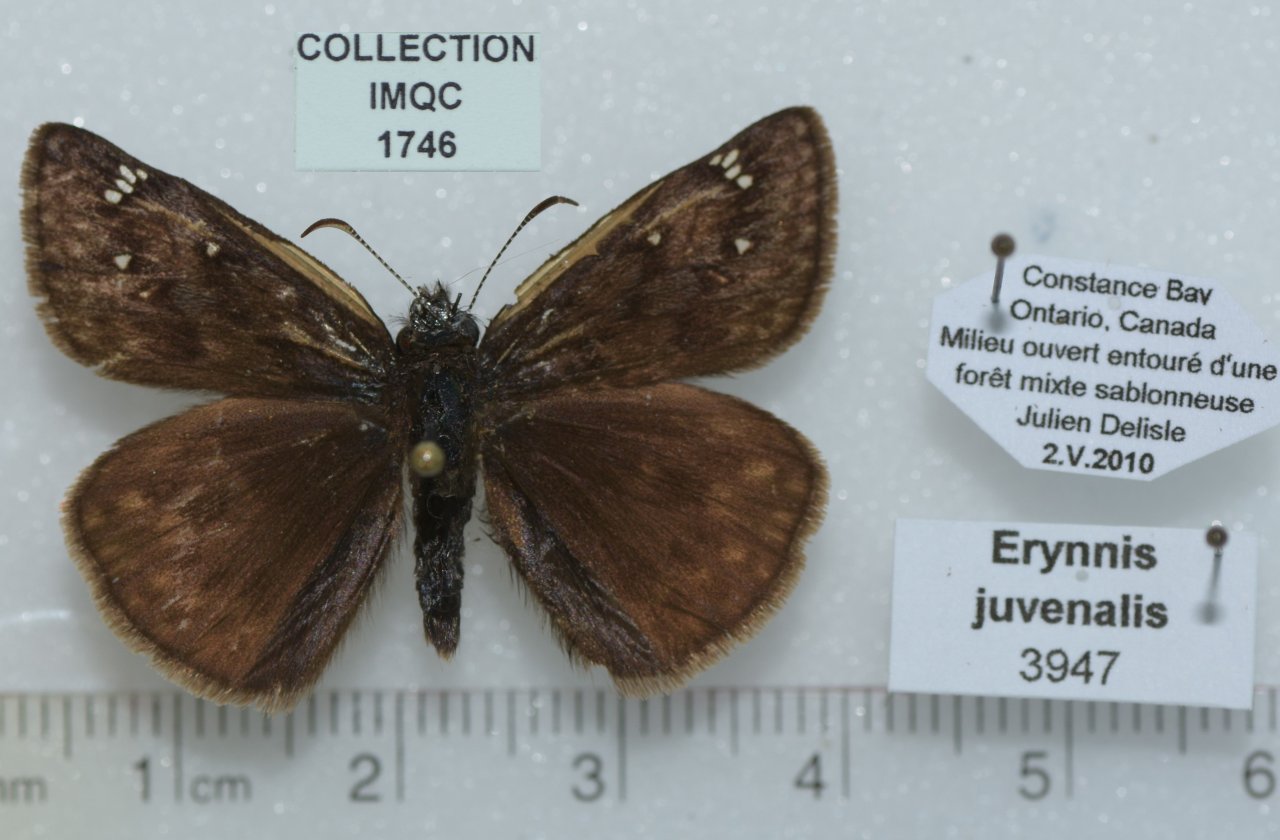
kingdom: Animalia
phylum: Arthropoda
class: Insecta
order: Lepidoptera
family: Hesperiidae
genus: Gesta
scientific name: Gesta
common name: Juvenal's Duskywing
